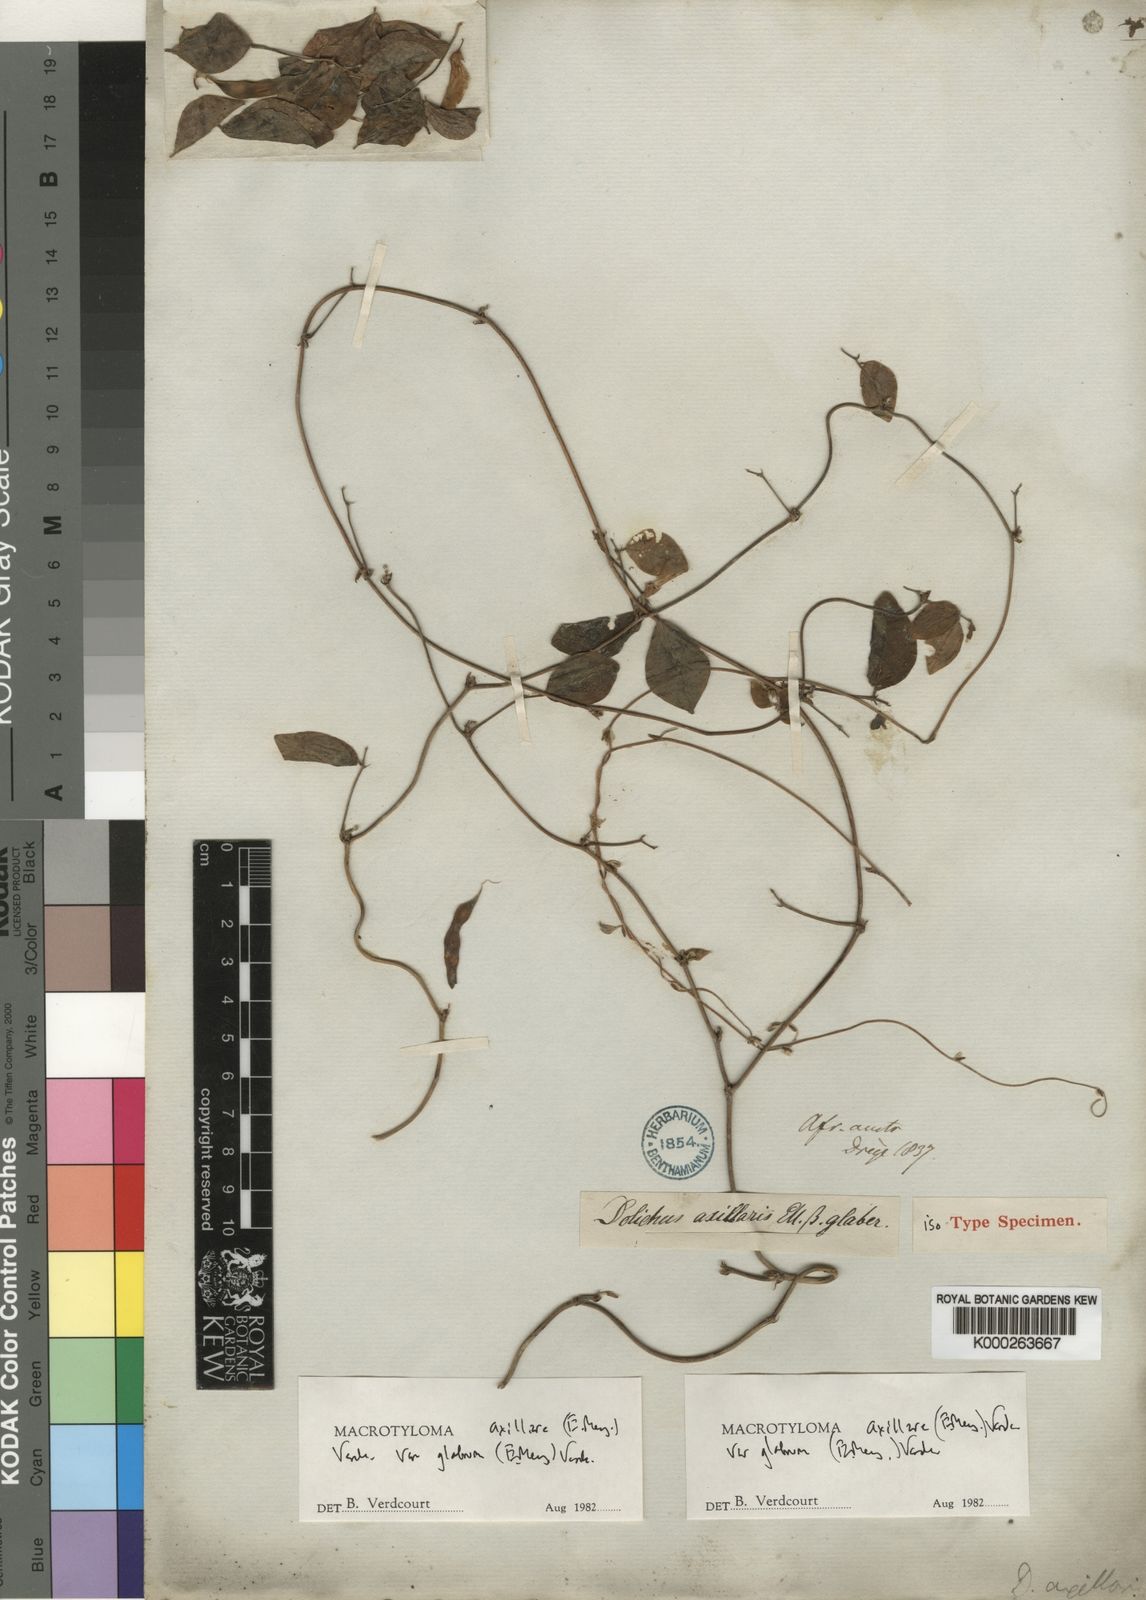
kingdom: Plantae
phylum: Tracheophyta
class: Magnoliopsida
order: Fabales
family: Fabaceae
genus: Macrotyloma
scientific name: Macrotyloma axillare
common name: Perennial horsegram
